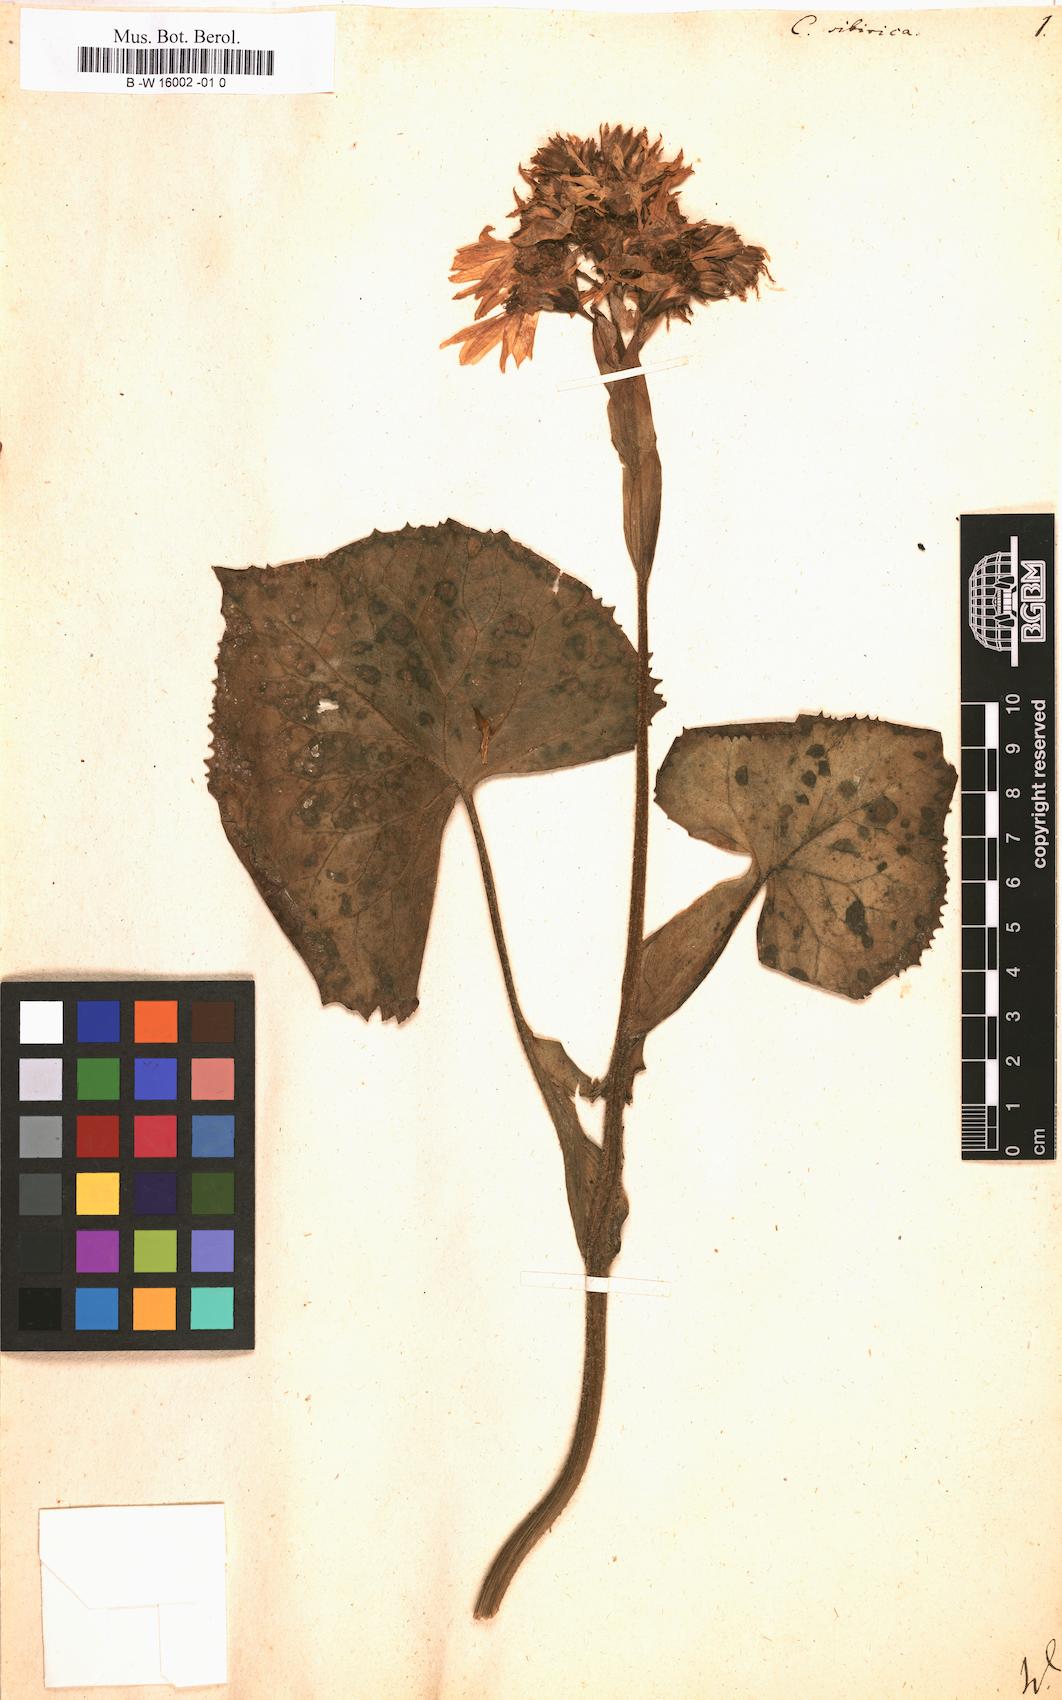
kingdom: Plantae
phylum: Tracheophyta
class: Magnoliopsida
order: Asterales
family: Asteraceae
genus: Ligularia
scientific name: Ligularia sibirica
